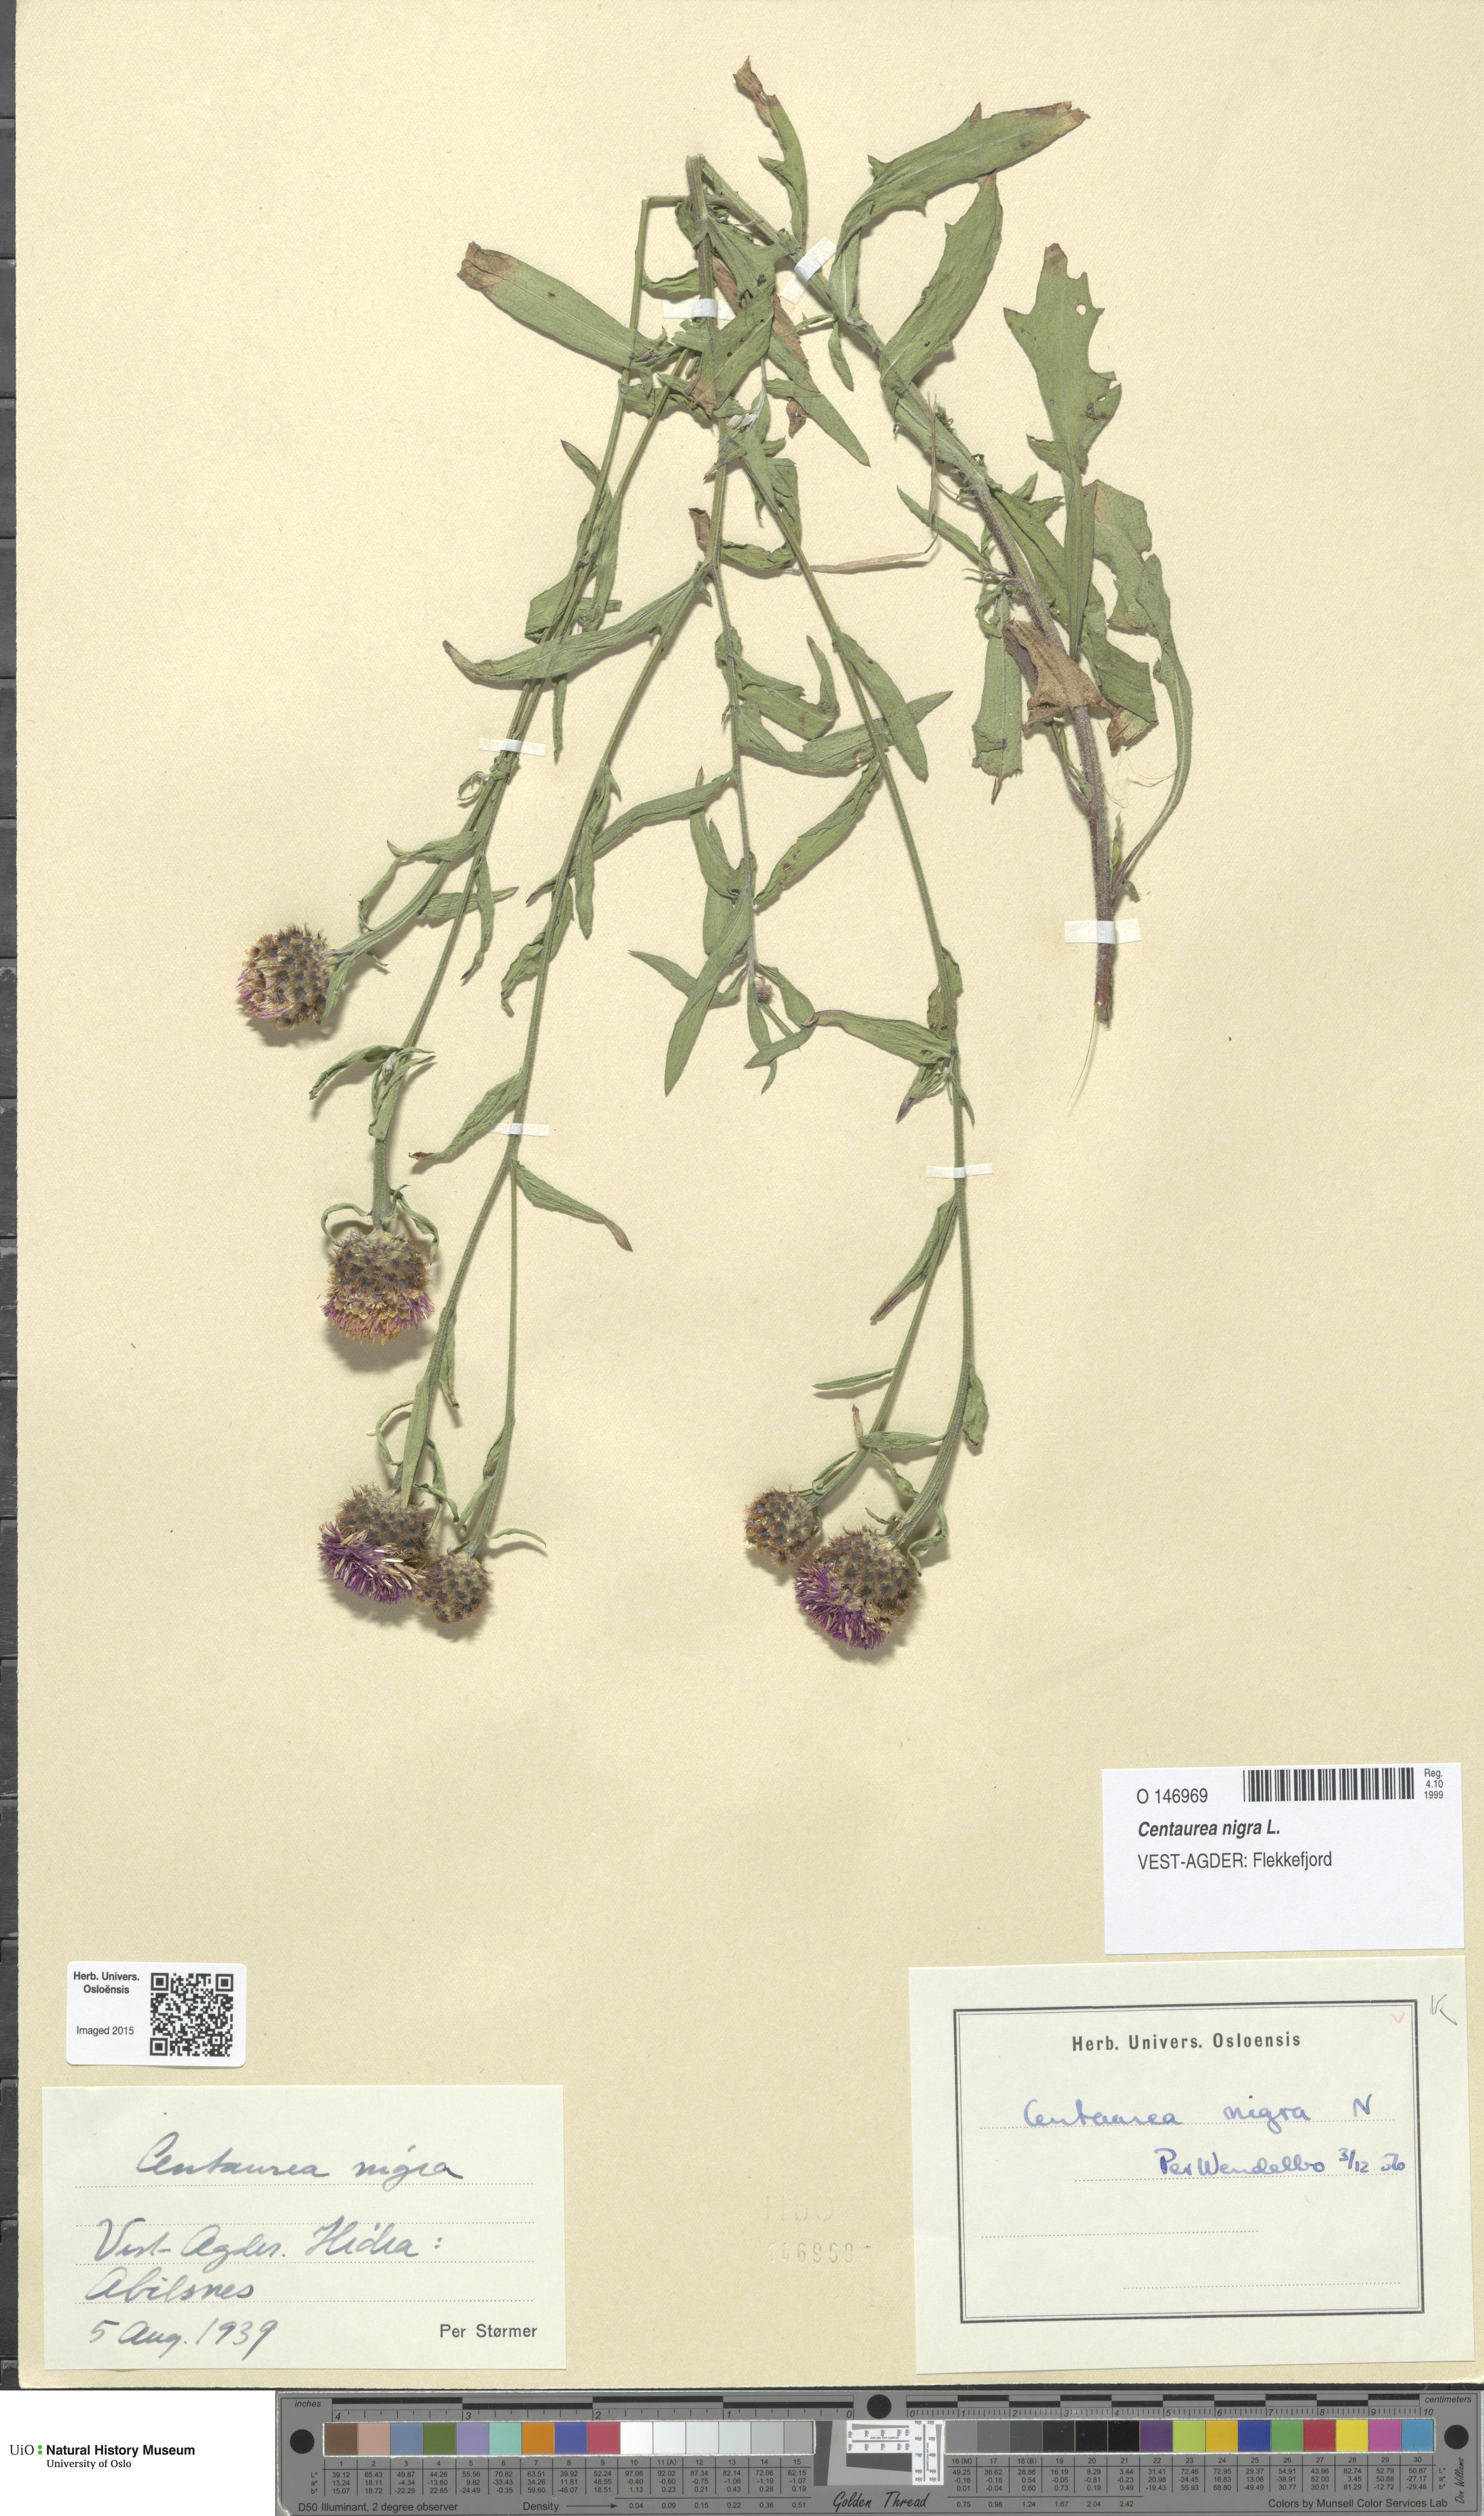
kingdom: Plantae
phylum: Tracheophyta
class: Magnoliopsida
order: Asterales
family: Asteraceae
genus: Centaurea
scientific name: Centaurea nigra
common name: Lesser knapweed
